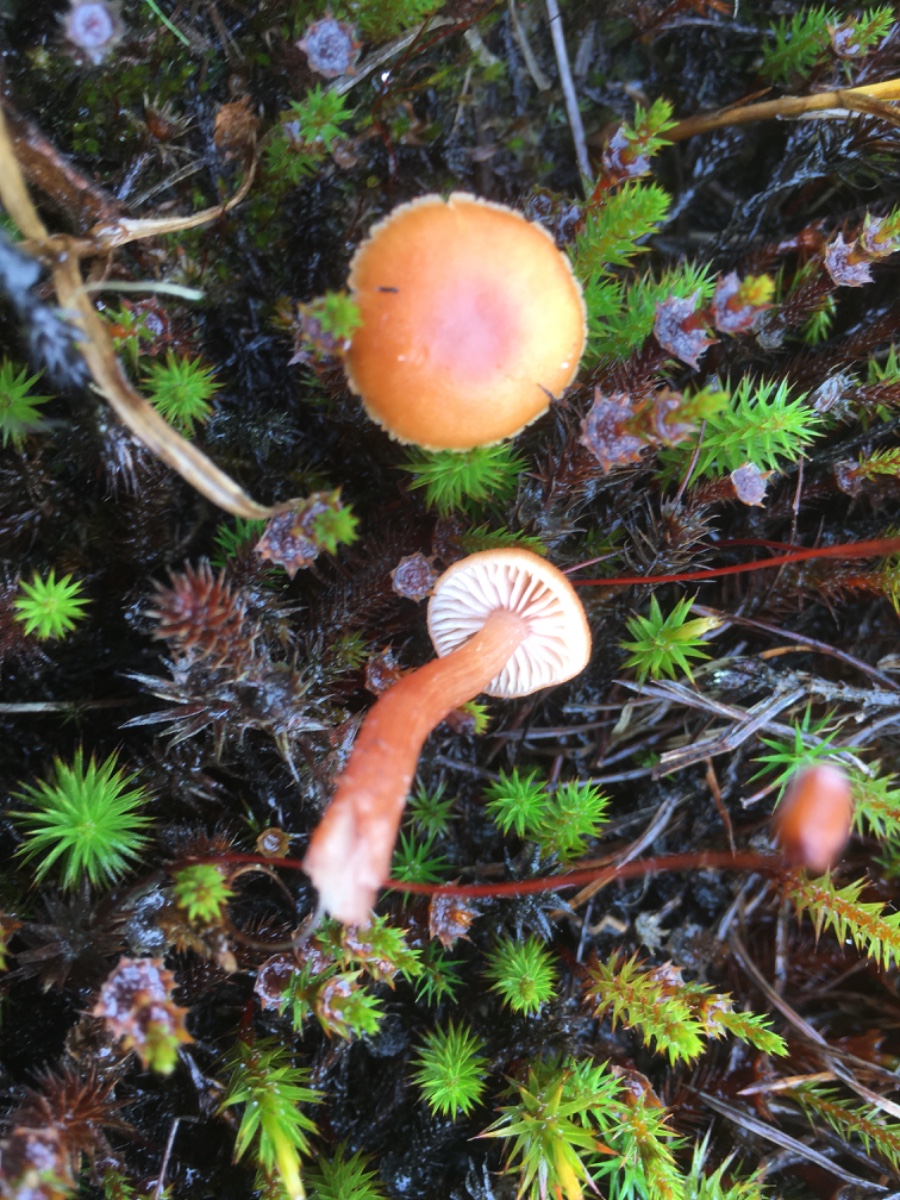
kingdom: Fungi
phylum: Basidiomycota
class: Agaricomycetes
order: Agaricales
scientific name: Agaricales
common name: champignonordenen
